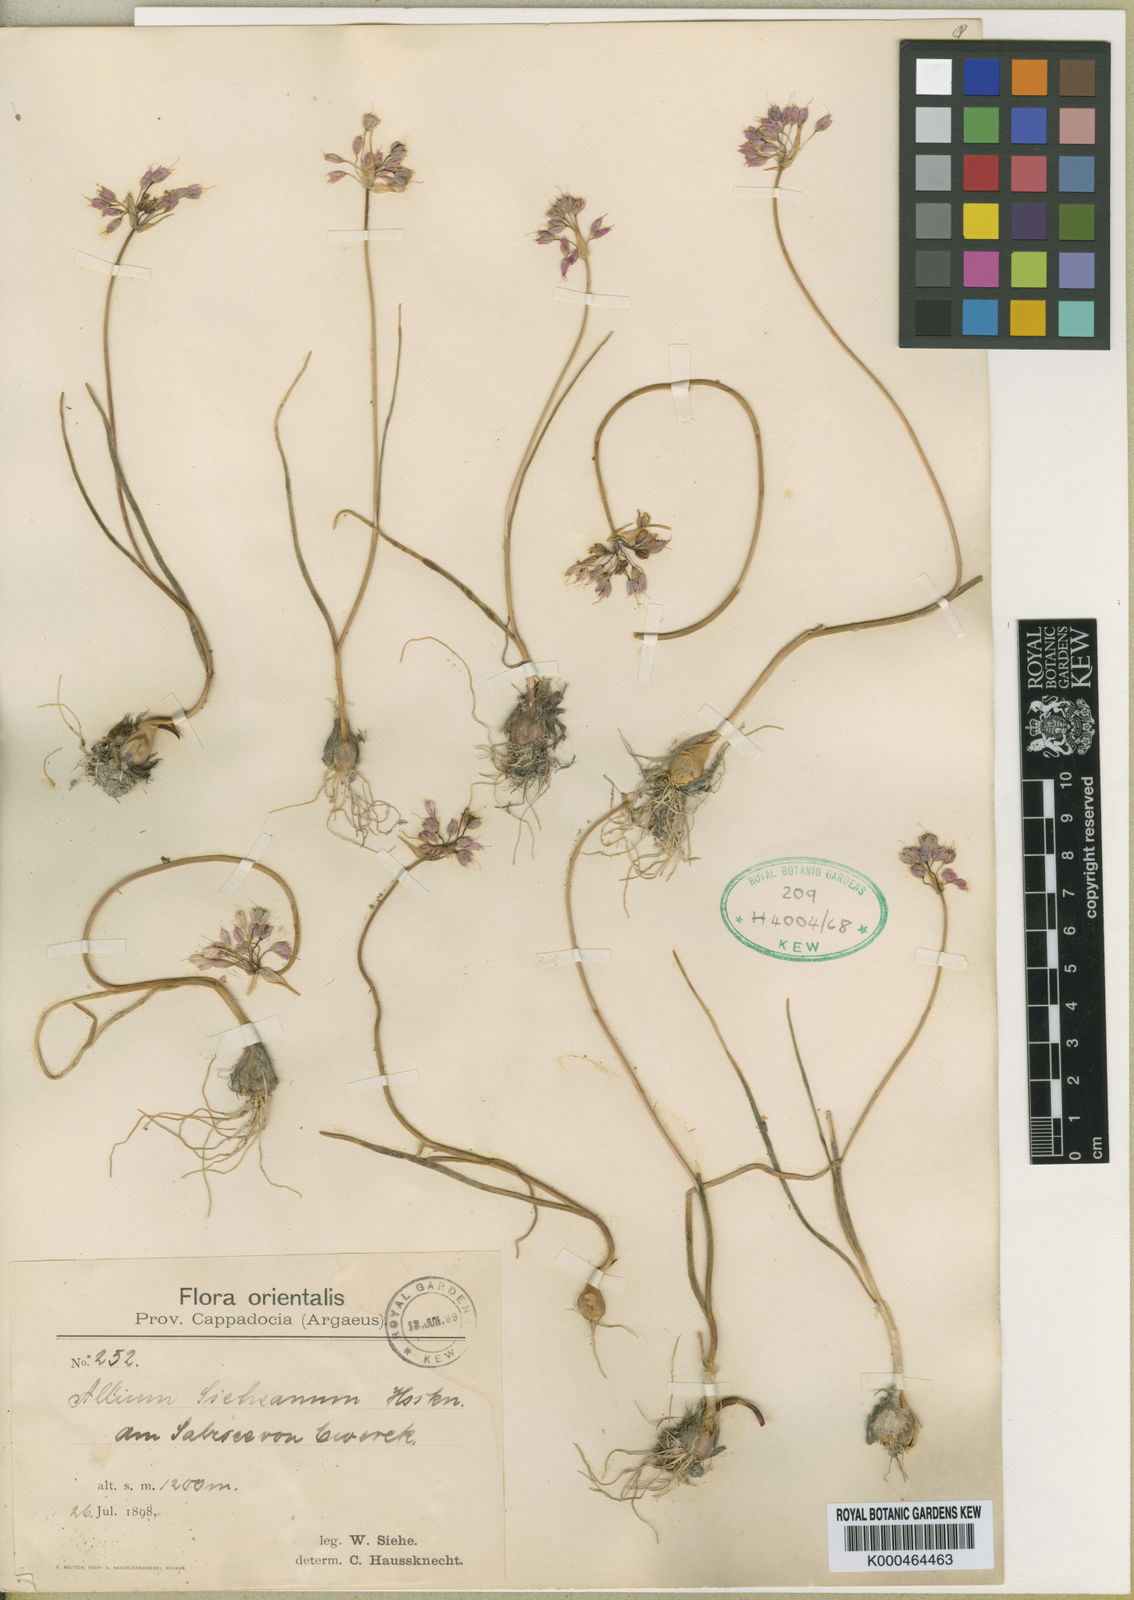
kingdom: Plantae
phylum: Tracheophyta
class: Liliopsida
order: Asparagales
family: Amaryllidaceae
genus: Allium
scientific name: Allium sieheanum
